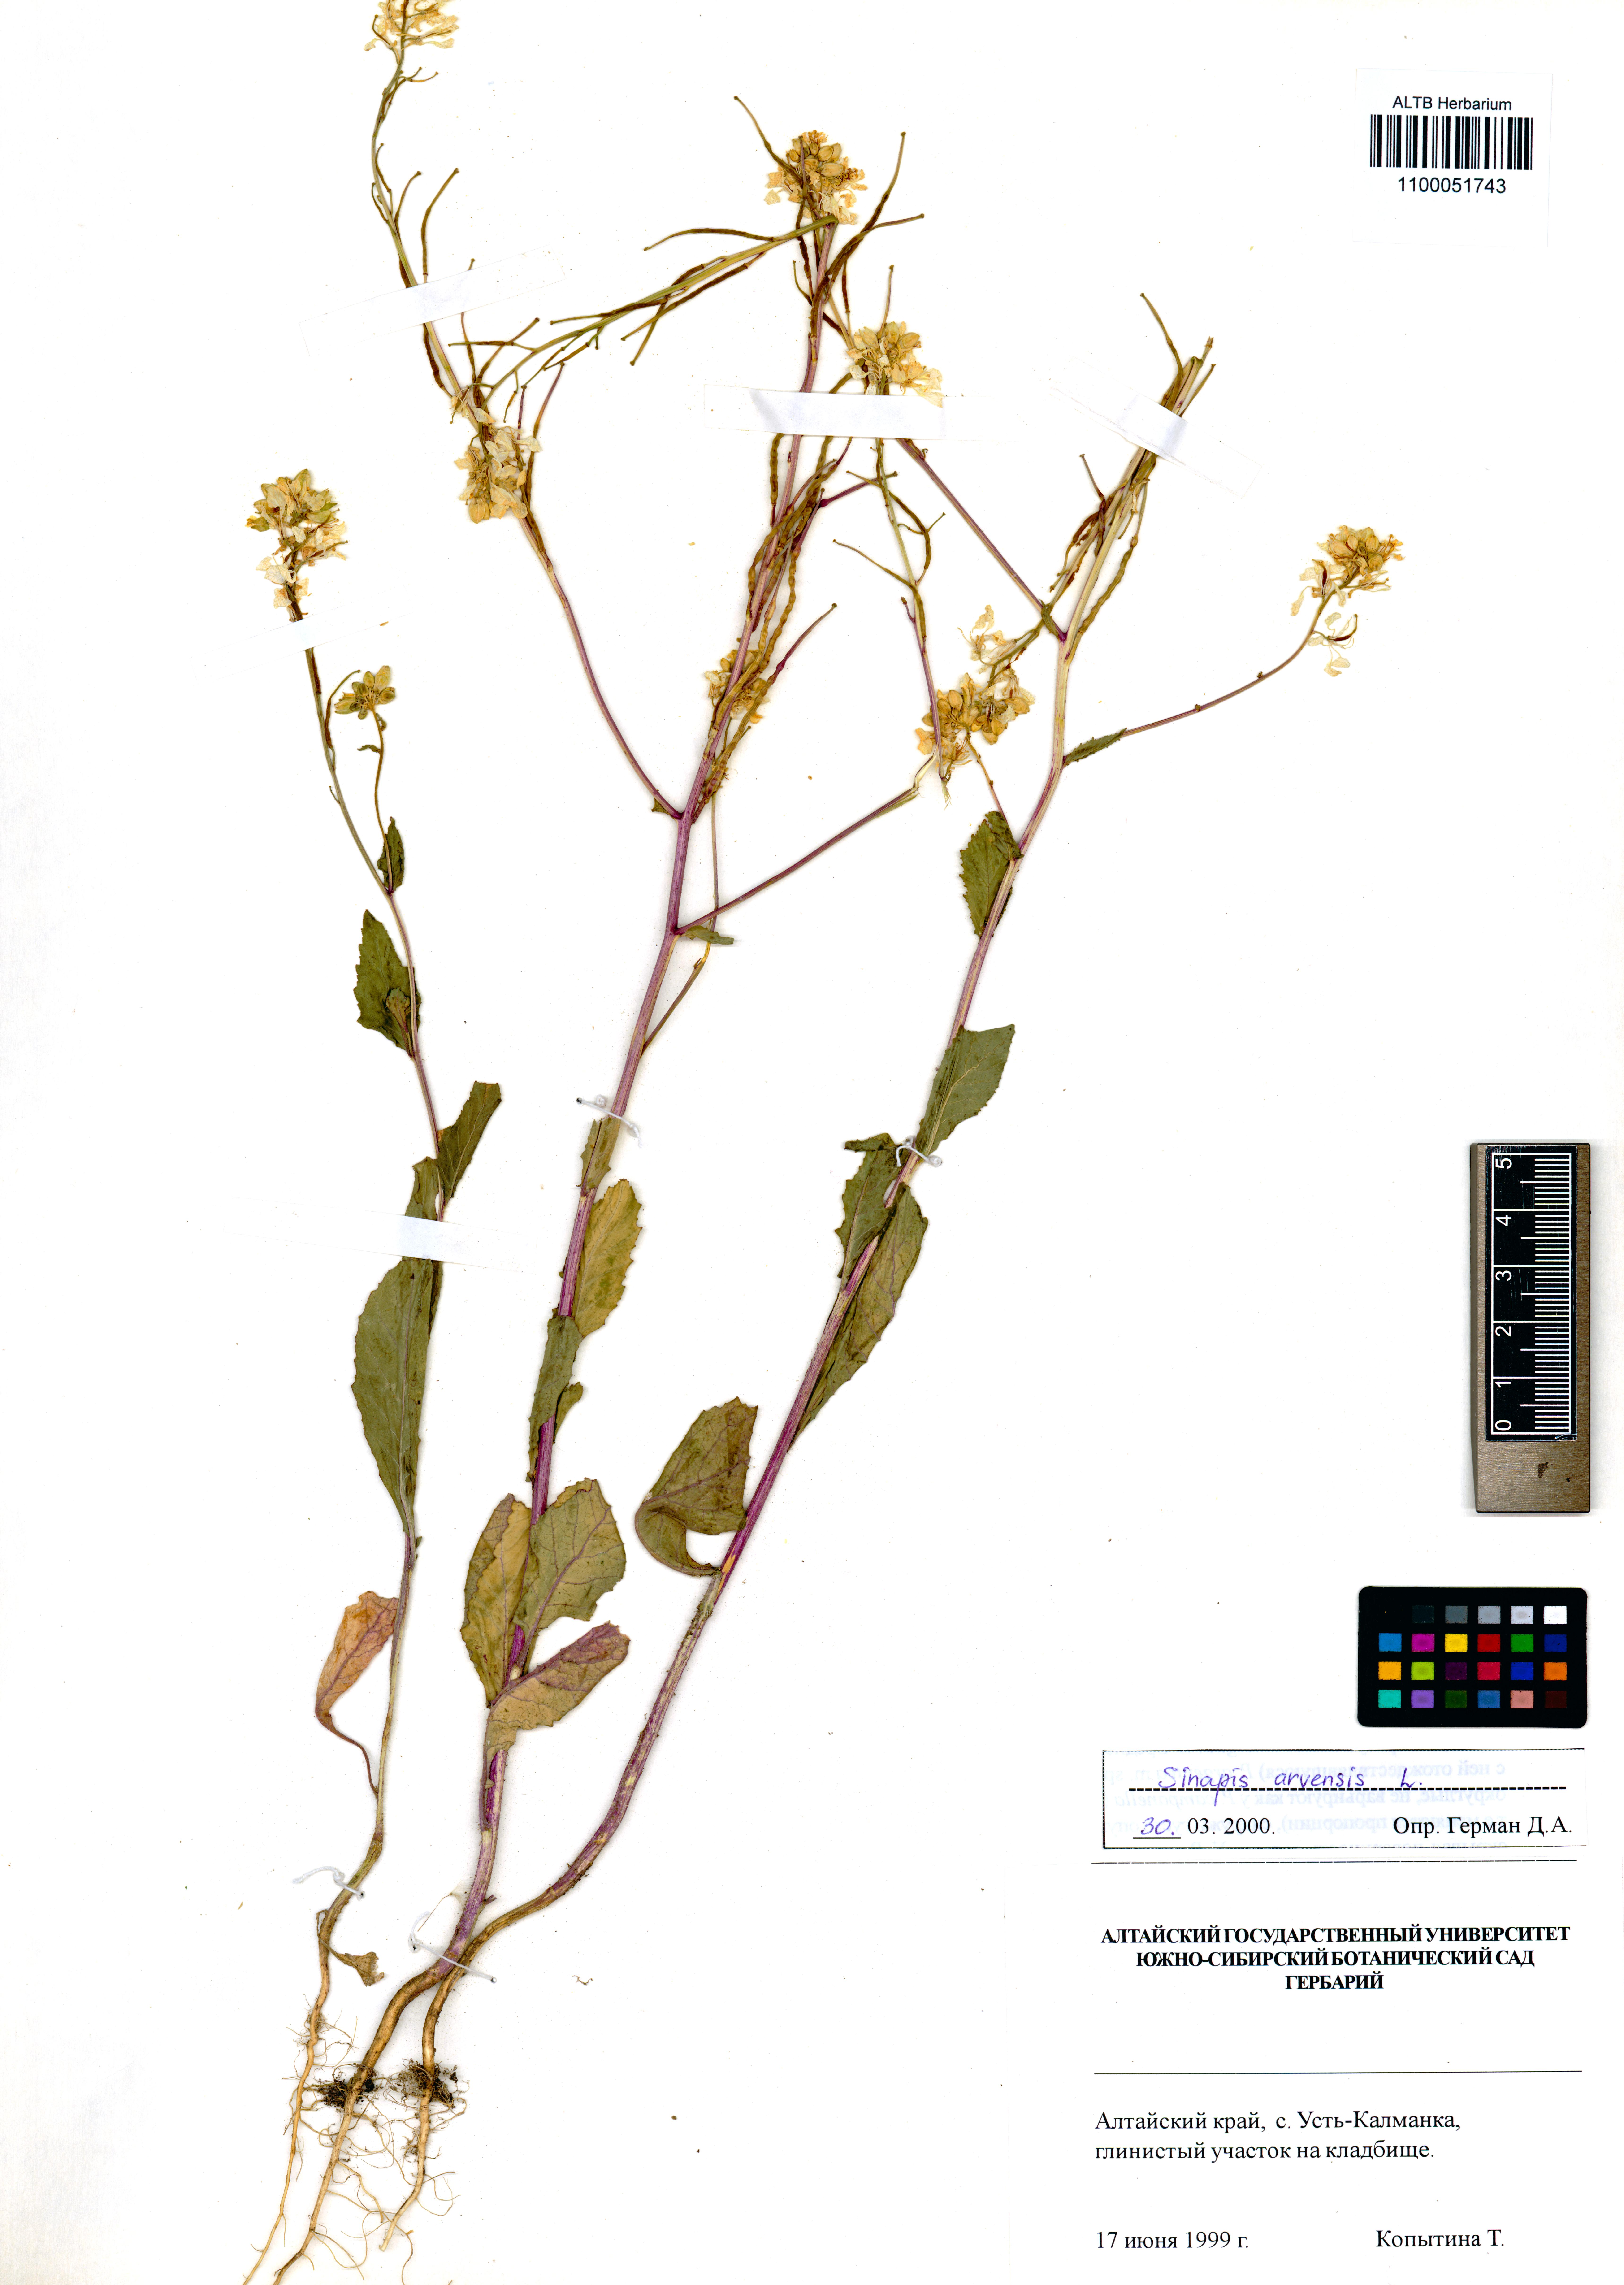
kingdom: Plantae
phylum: Tracheophyta
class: Magnoliopsida
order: Brassicales
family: Brassicaceae
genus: Sinapis
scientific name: Sinapis arvensis
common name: Charlock
